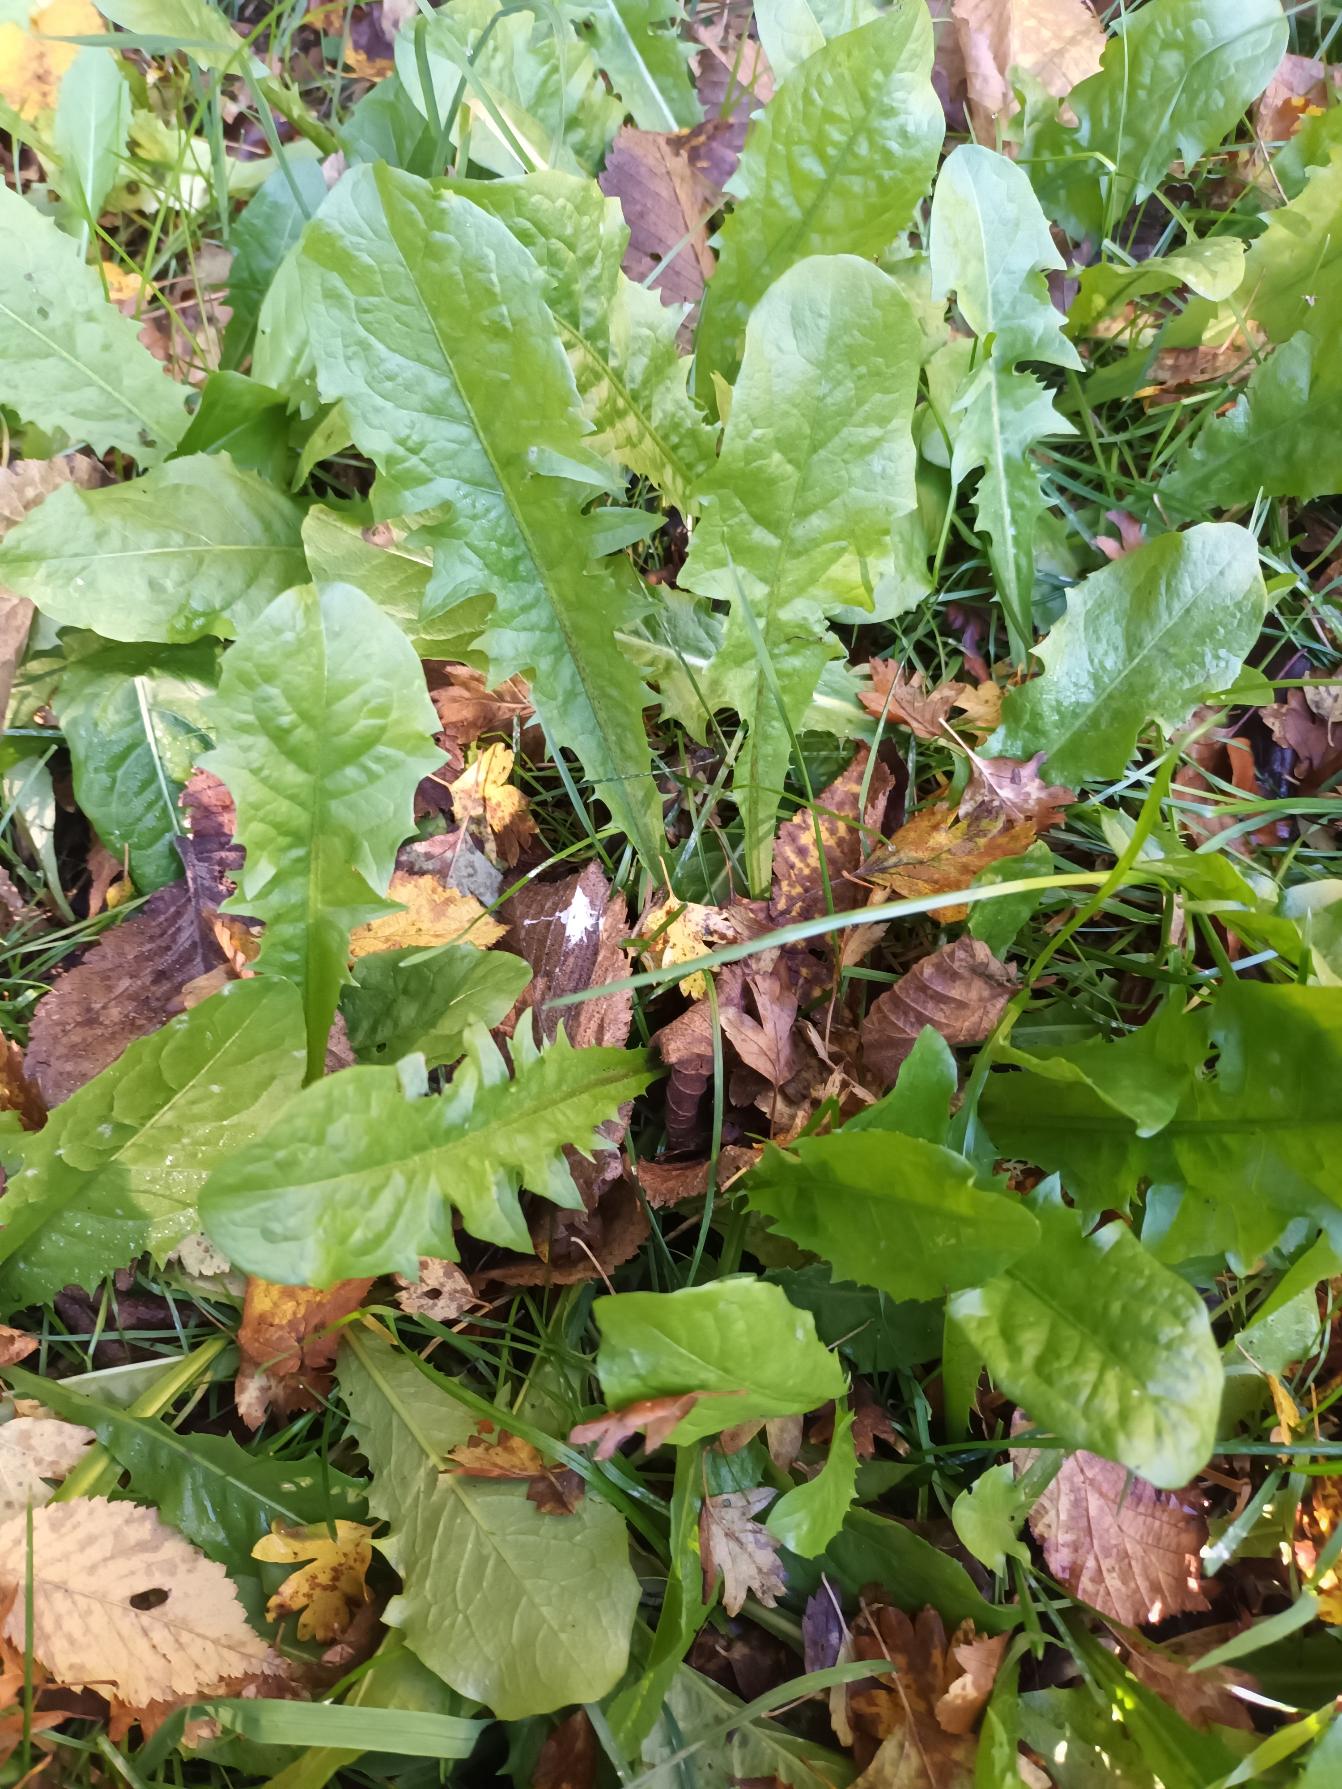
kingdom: Plantae
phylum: Tracheophyta
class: Magnoliopsida
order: Asterales
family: Asteraceae
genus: Taraxacum
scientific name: Taraxacum
